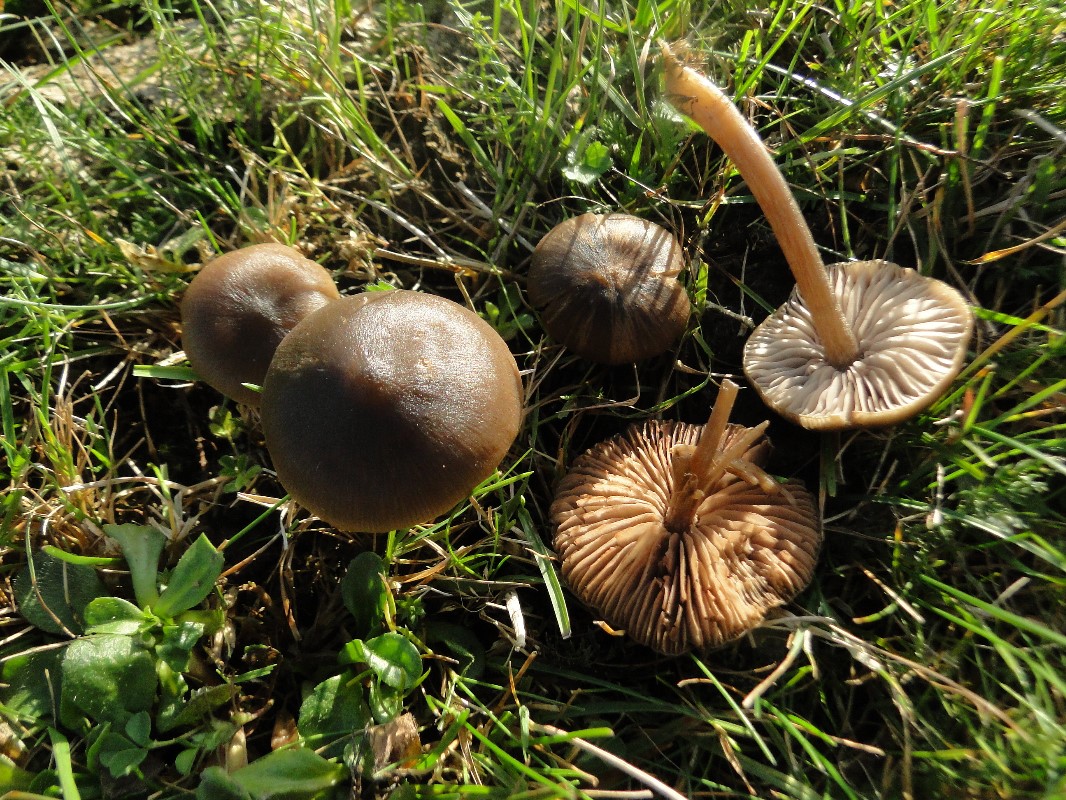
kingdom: Fungi
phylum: Basidiomycota
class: Agaricomycetes
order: Agaricales
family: Entolomataceae
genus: Entoloma
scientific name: Entoloma sericeum
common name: silkeglinsende rødblad
